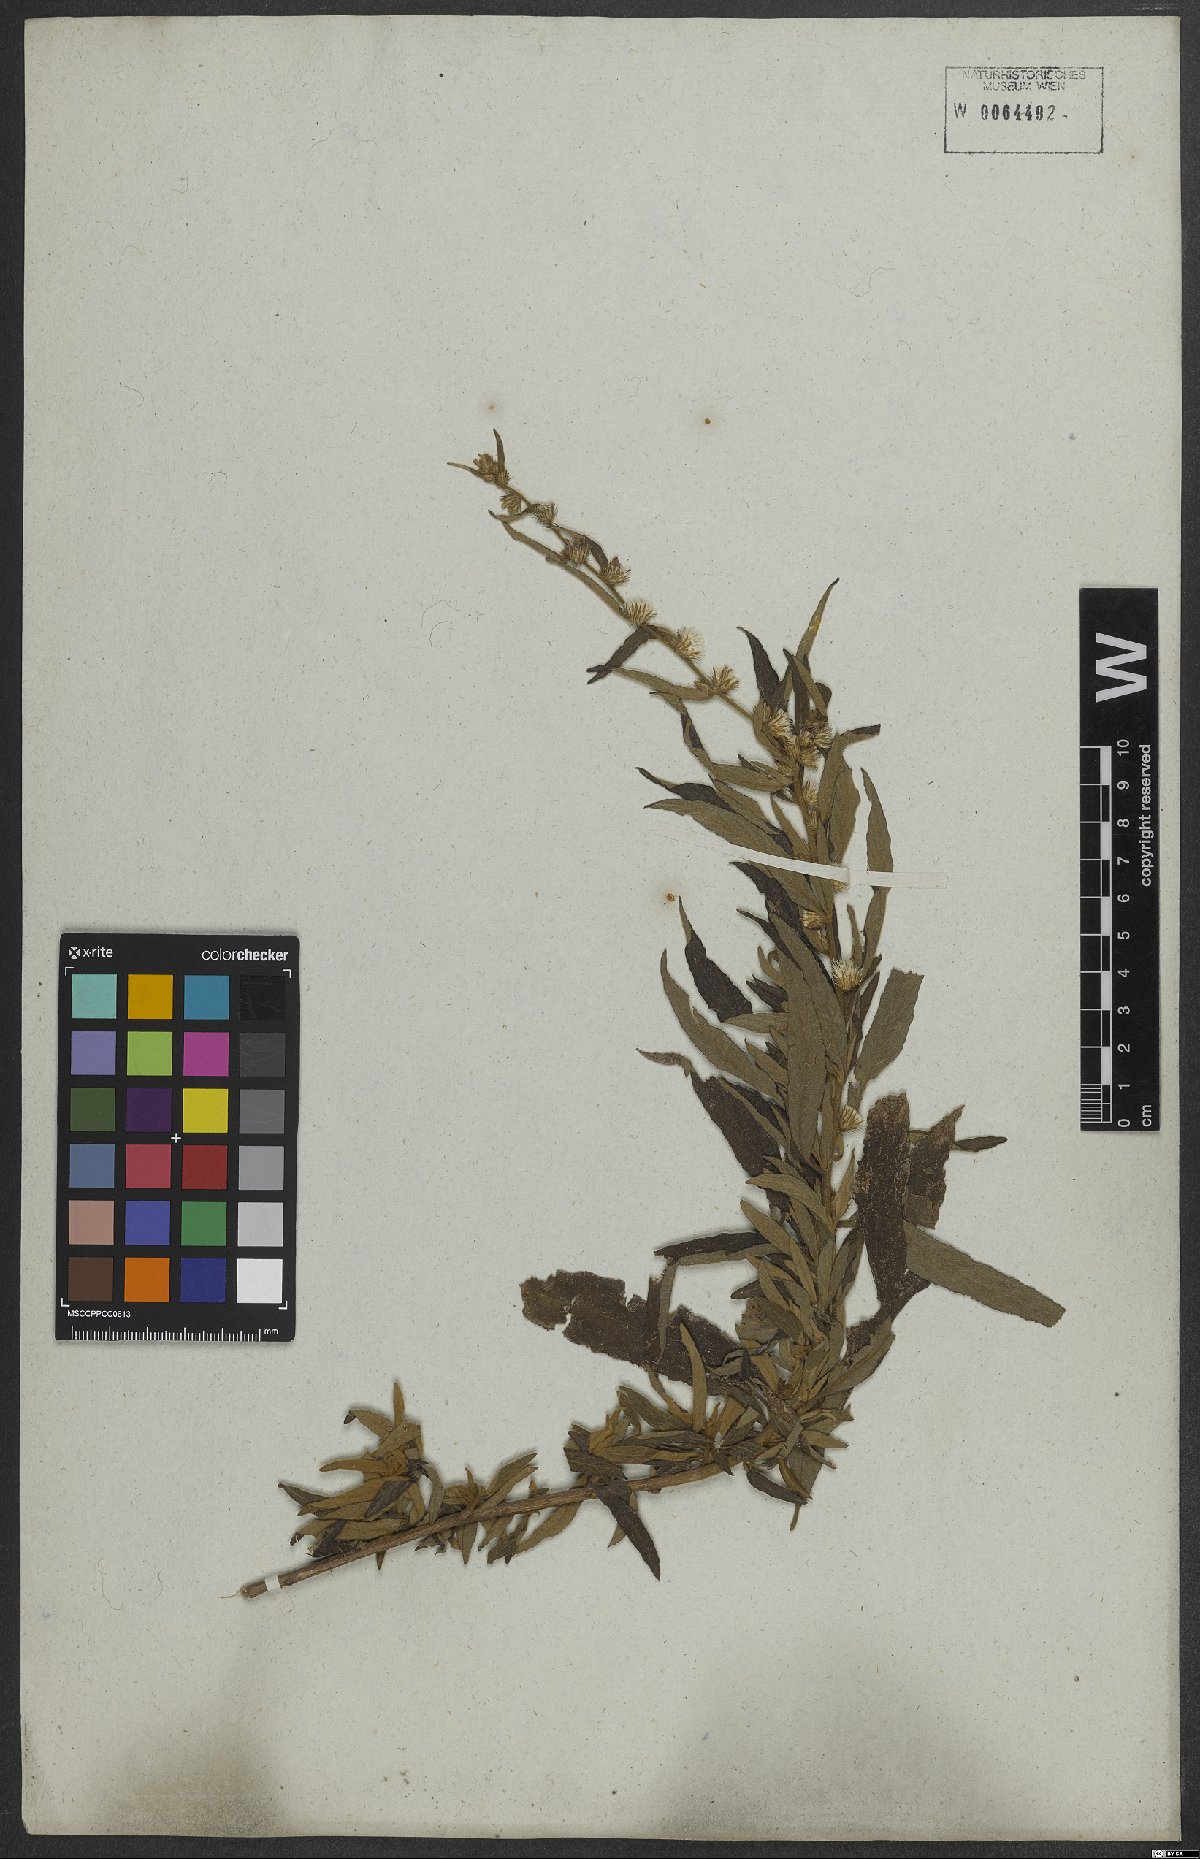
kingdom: Plantae
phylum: Tracheophyta
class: Magnoliopsida
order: Asterales
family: Asteraceae
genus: Lepidaploa
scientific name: Lepidaploa araripensis
